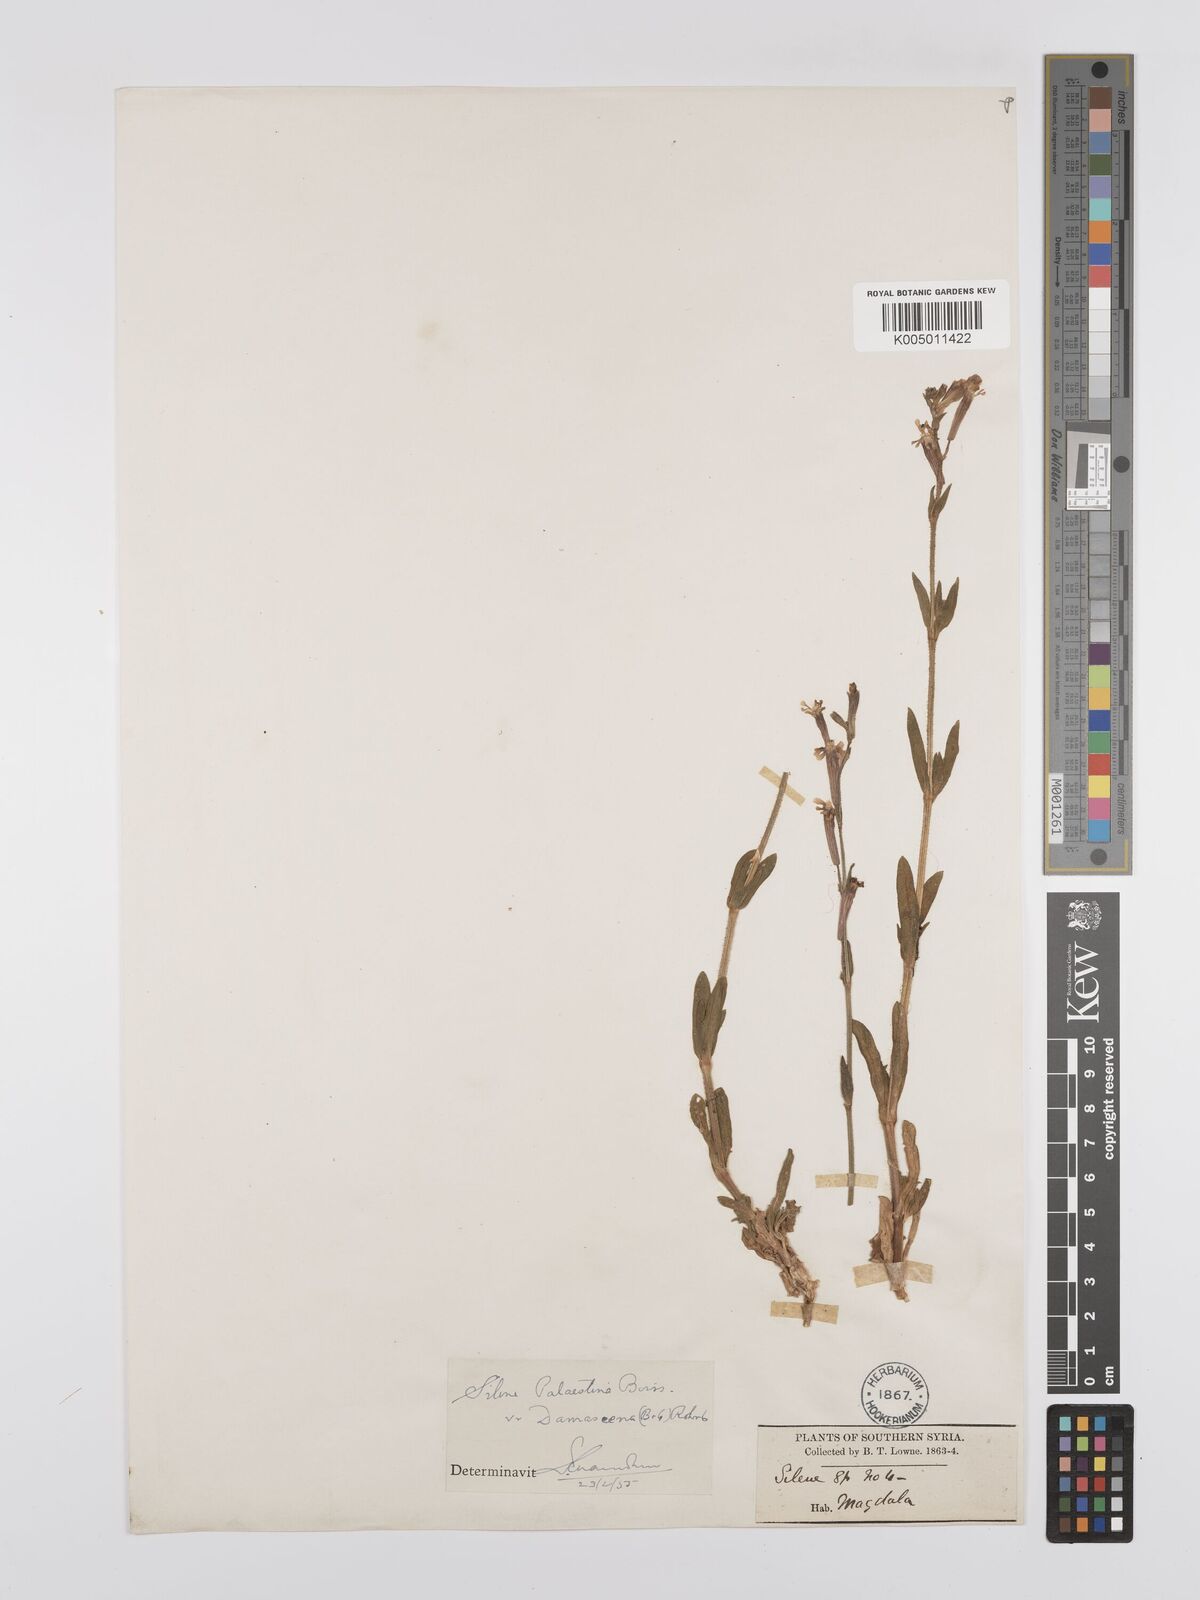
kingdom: Plantae
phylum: Tracheophyta
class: Magnoliopsida
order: Caryophyllales
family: Caryophyllaceae
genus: Silene
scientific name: Silene damascena
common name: Damascus catchfly
